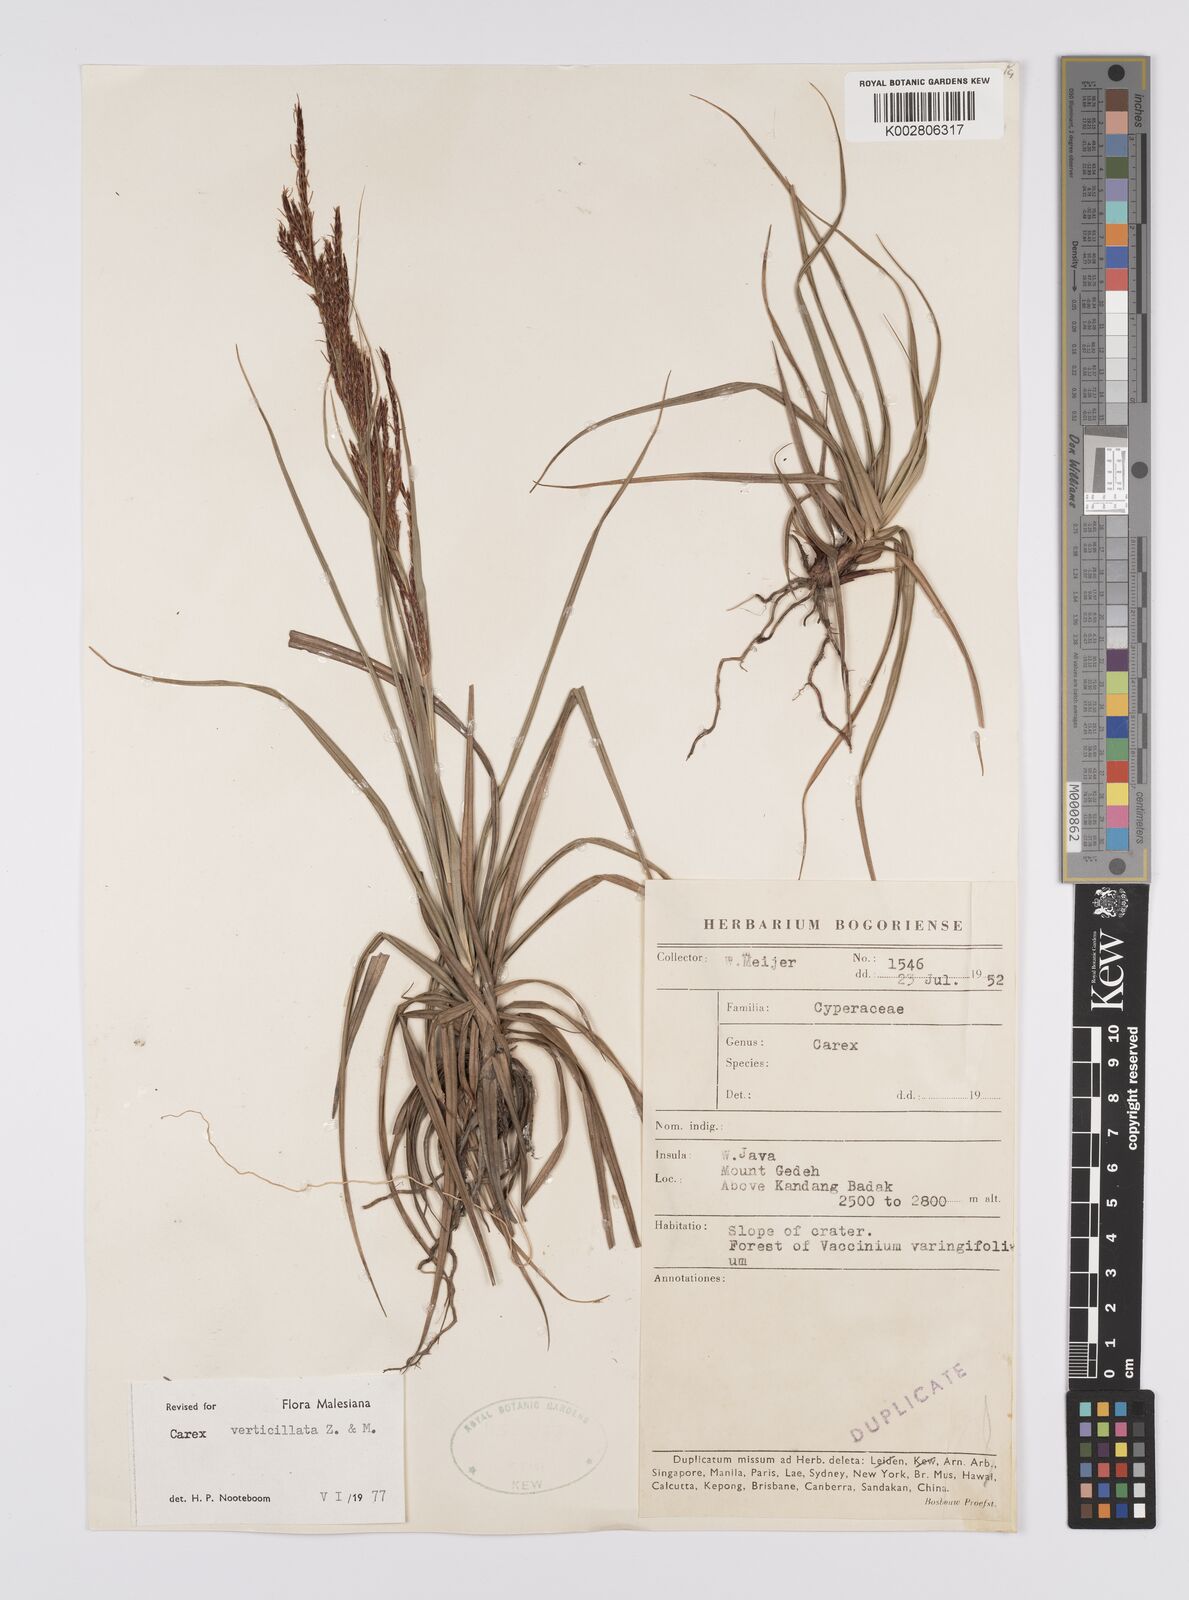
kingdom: Plantae
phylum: Tracheophyta
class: Liliopsida
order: Poales
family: Cyperaceae
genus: Carex
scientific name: Carex verticillata
